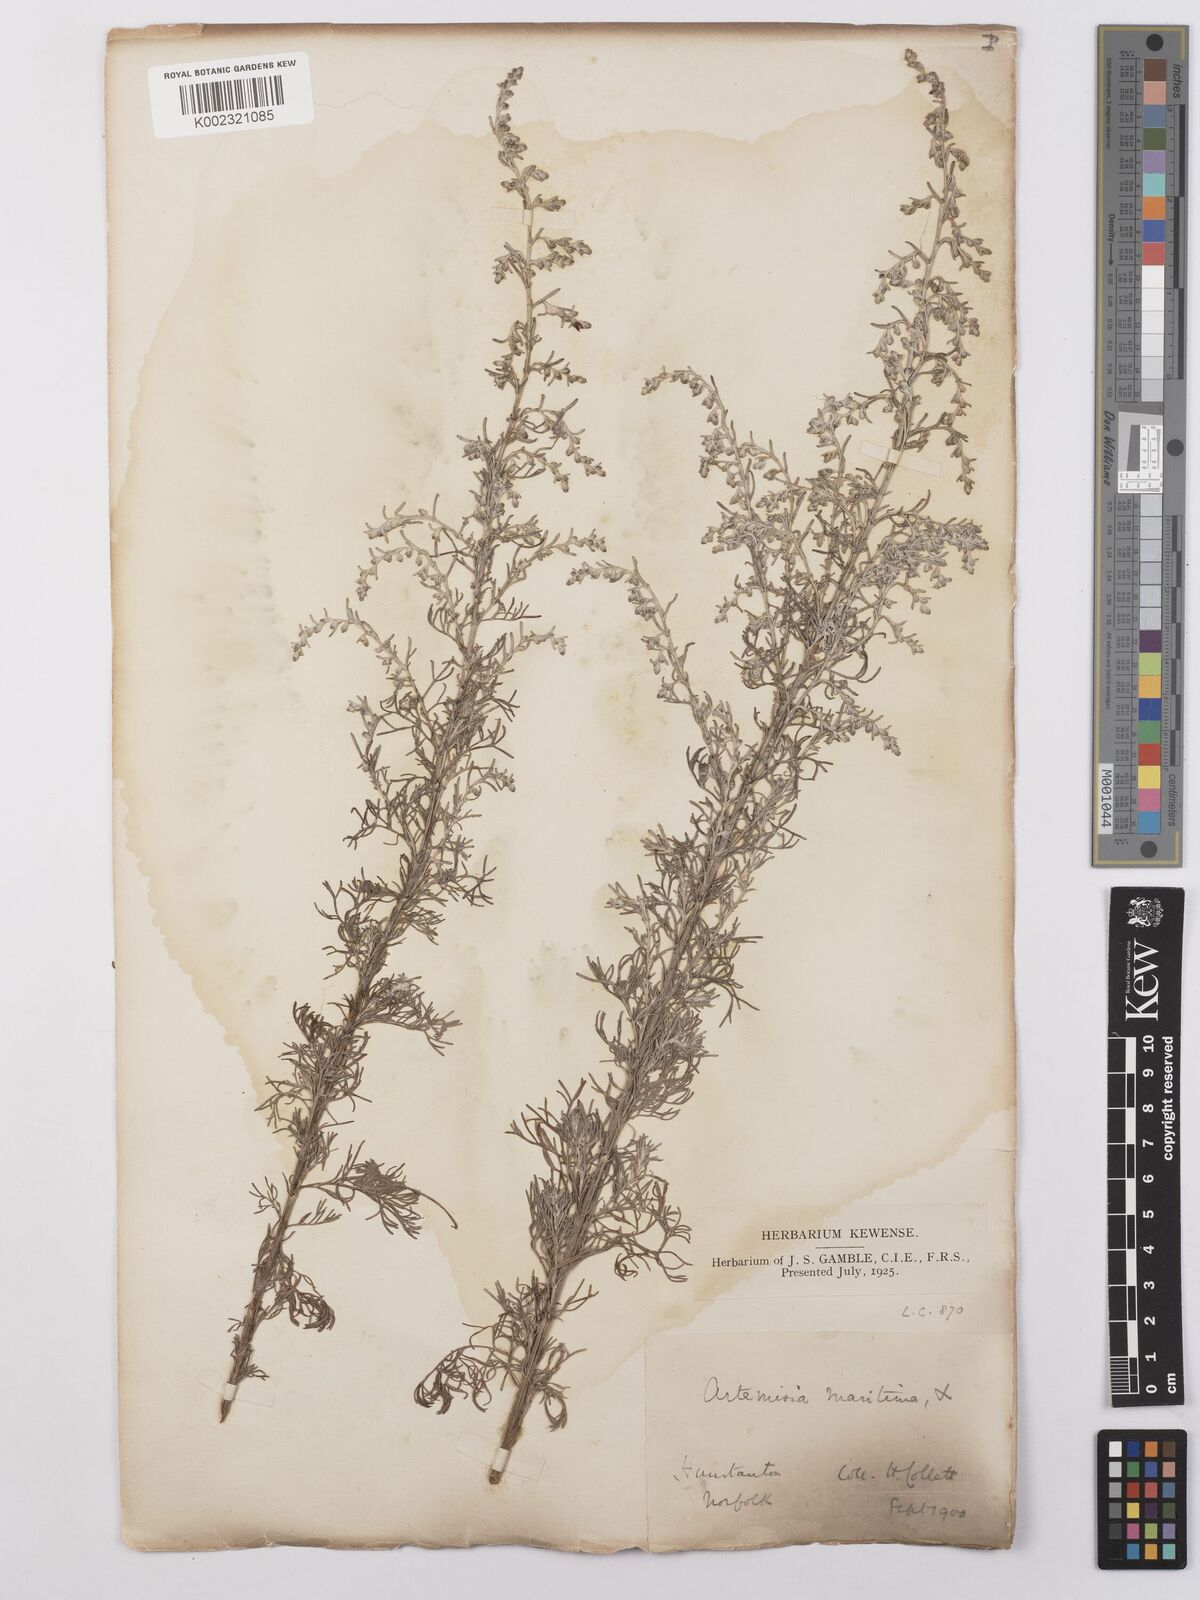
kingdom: Plantae
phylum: Tracheophyta
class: Magnoliopsida
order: Asterales
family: Asteraceae
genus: Artemisia
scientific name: Artemisia maritima
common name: Wormseed
